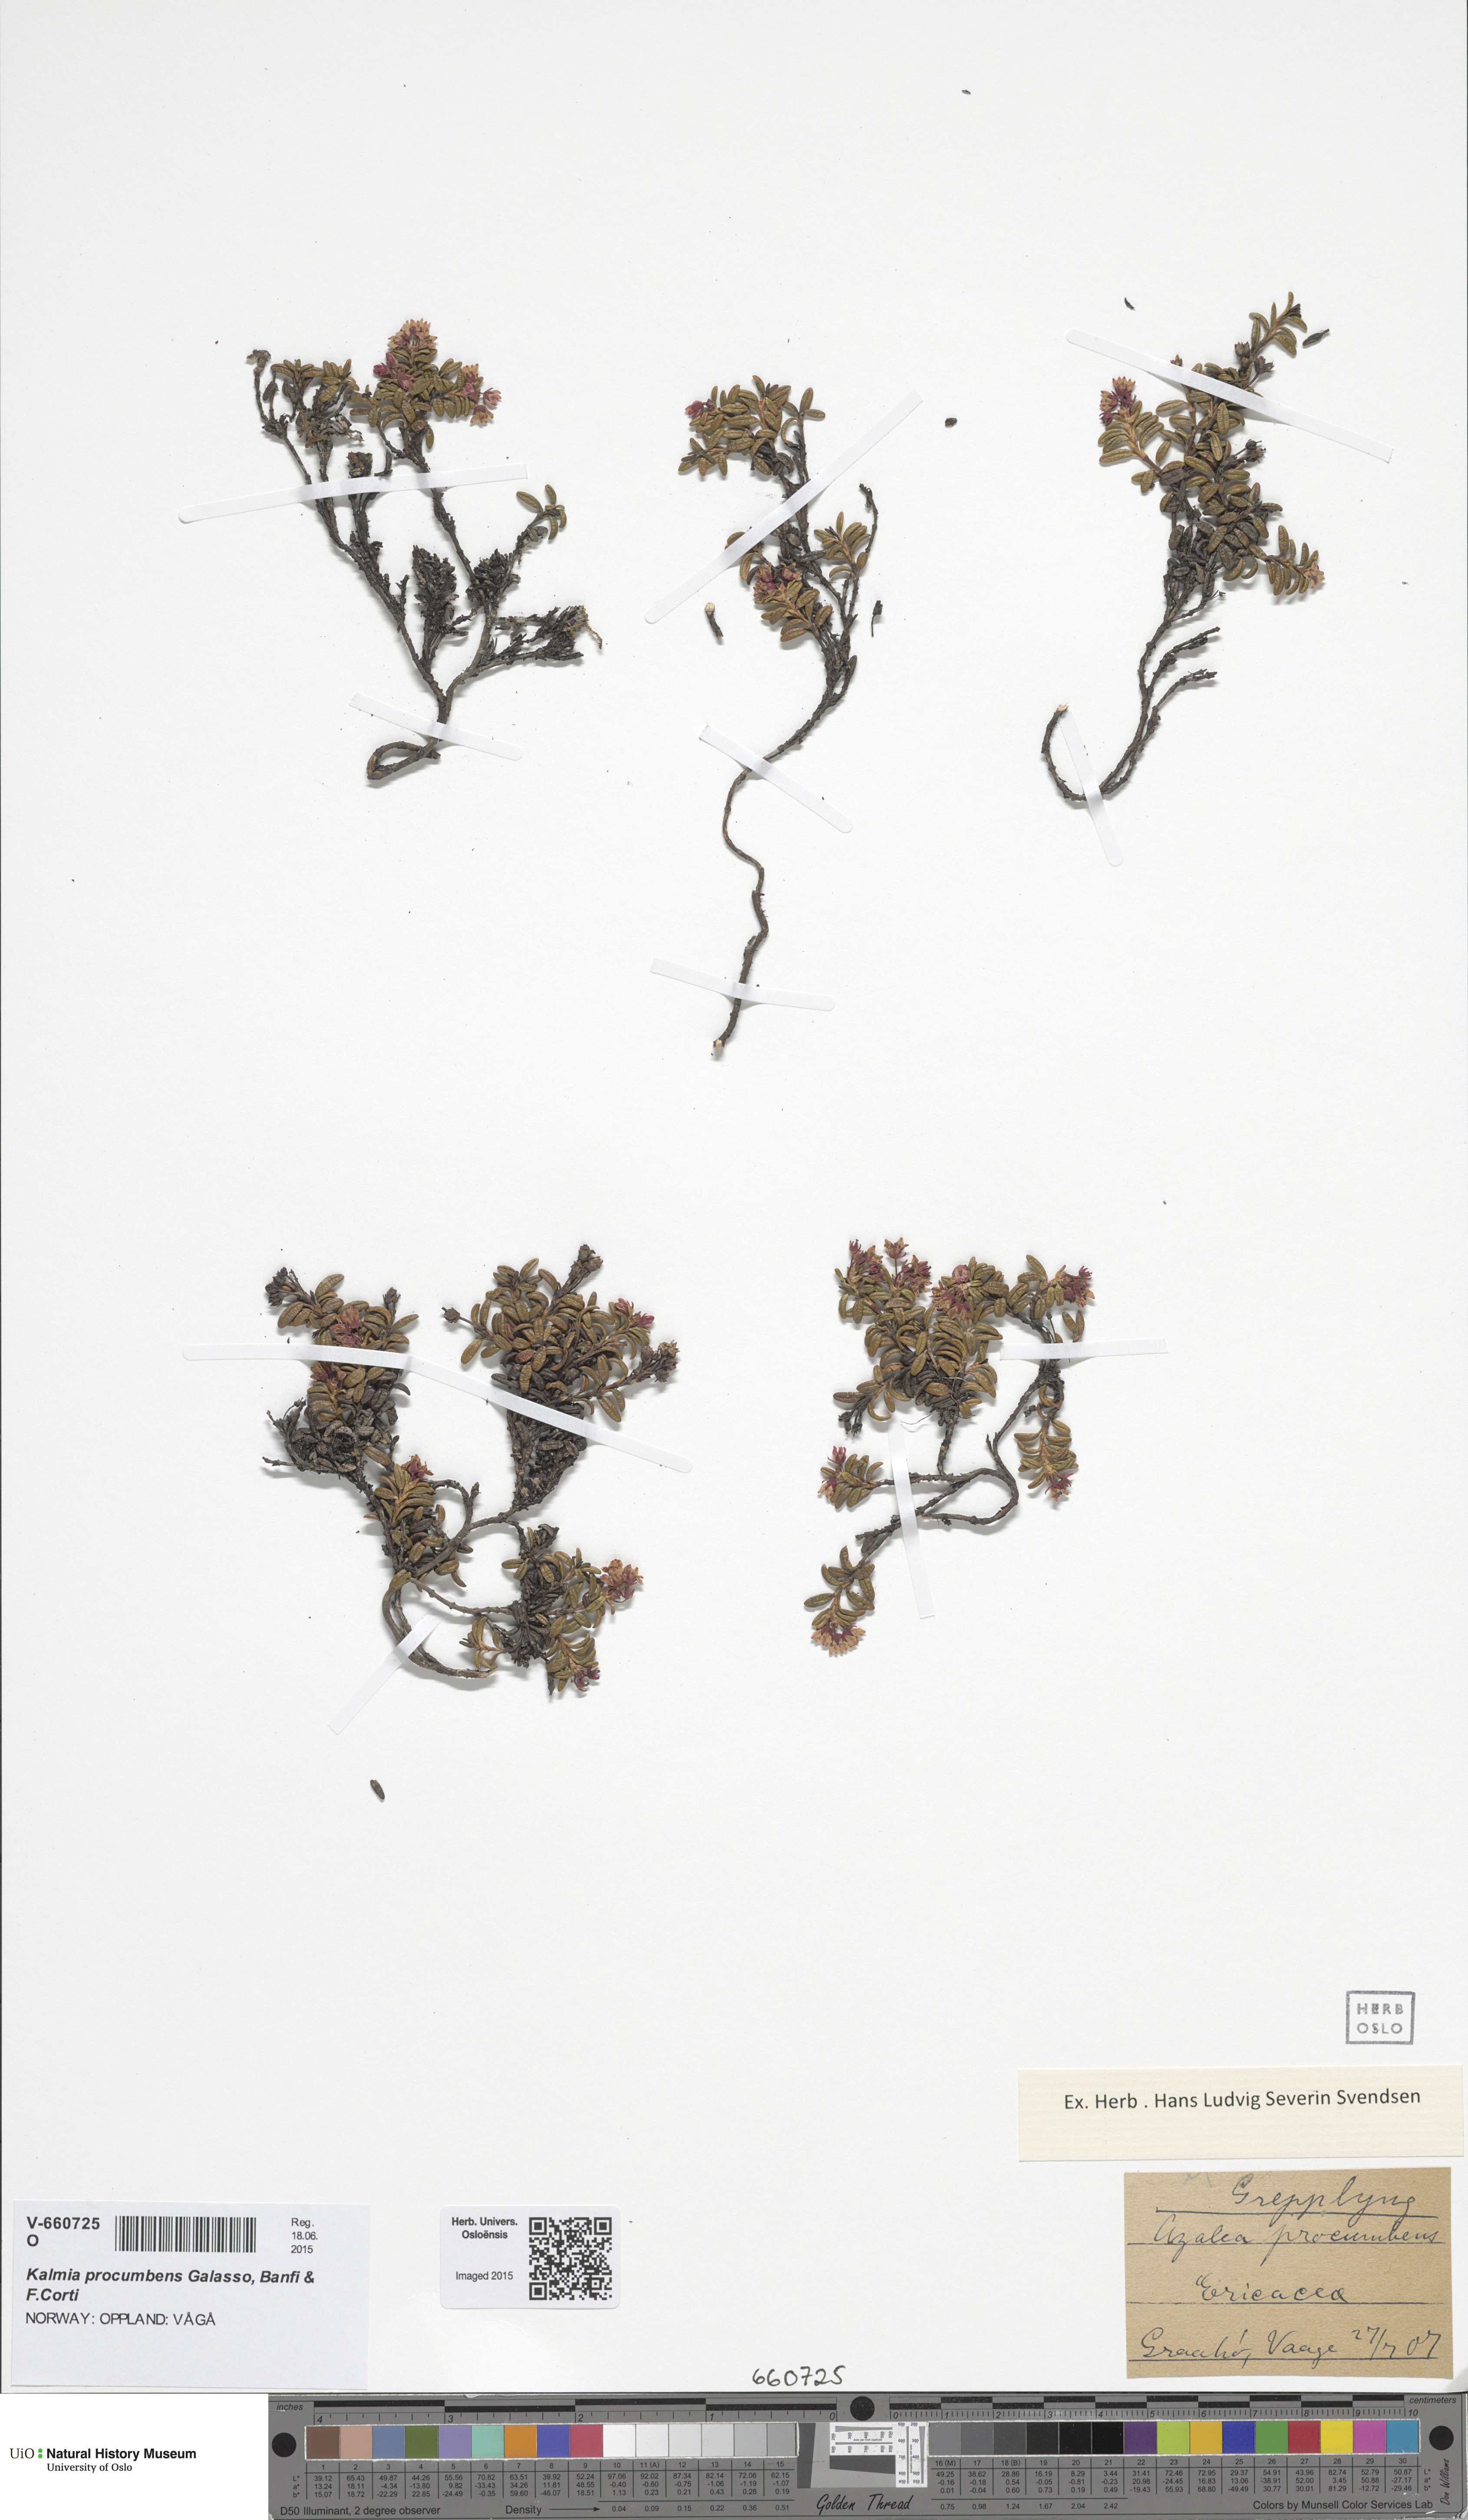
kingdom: Plantae
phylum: Tracheophyta
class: Magnoliopsida
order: Ericales
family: Ericaceae
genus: Kalmia
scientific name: Kalmia procumbens
